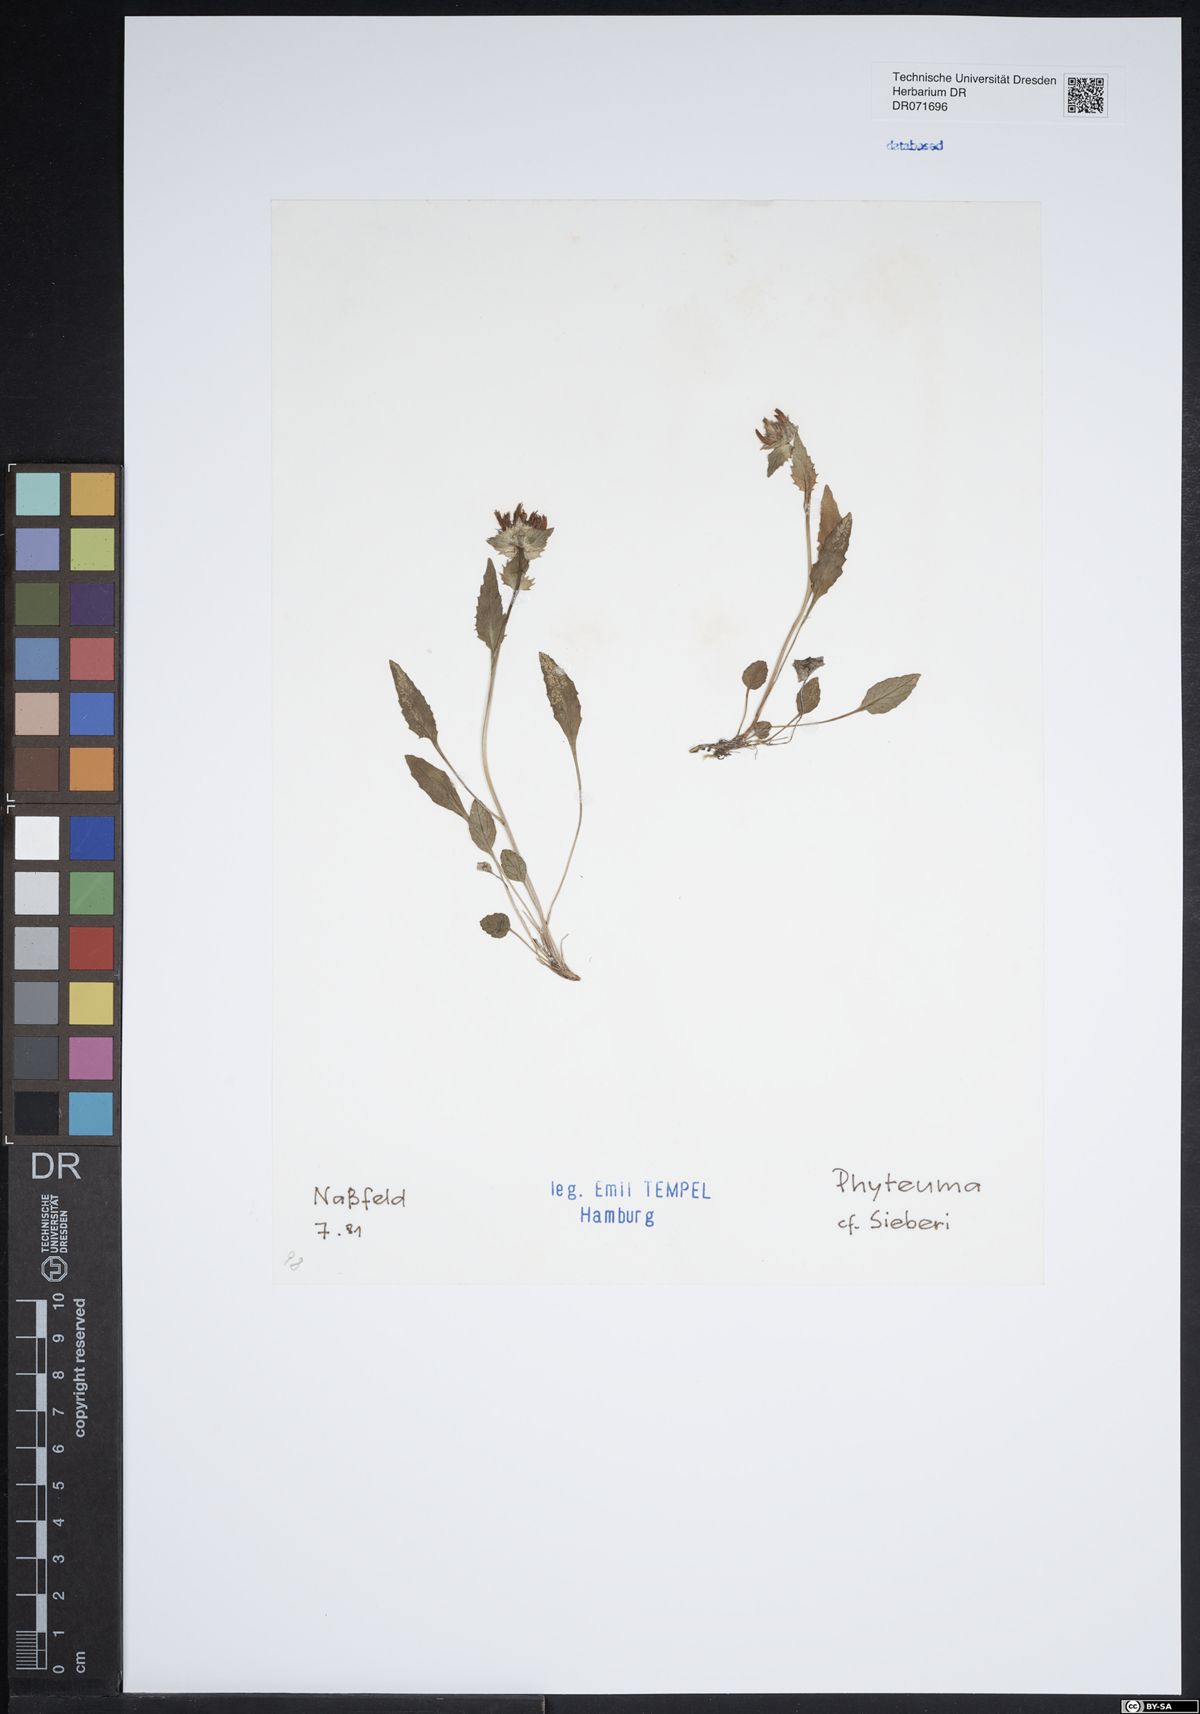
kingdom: Plantae
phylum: Tracheophyta
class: Magnoliopsida
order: Asterales
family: Campanulaceae
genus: Phyteuma
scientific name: Phyteuma sieberi
